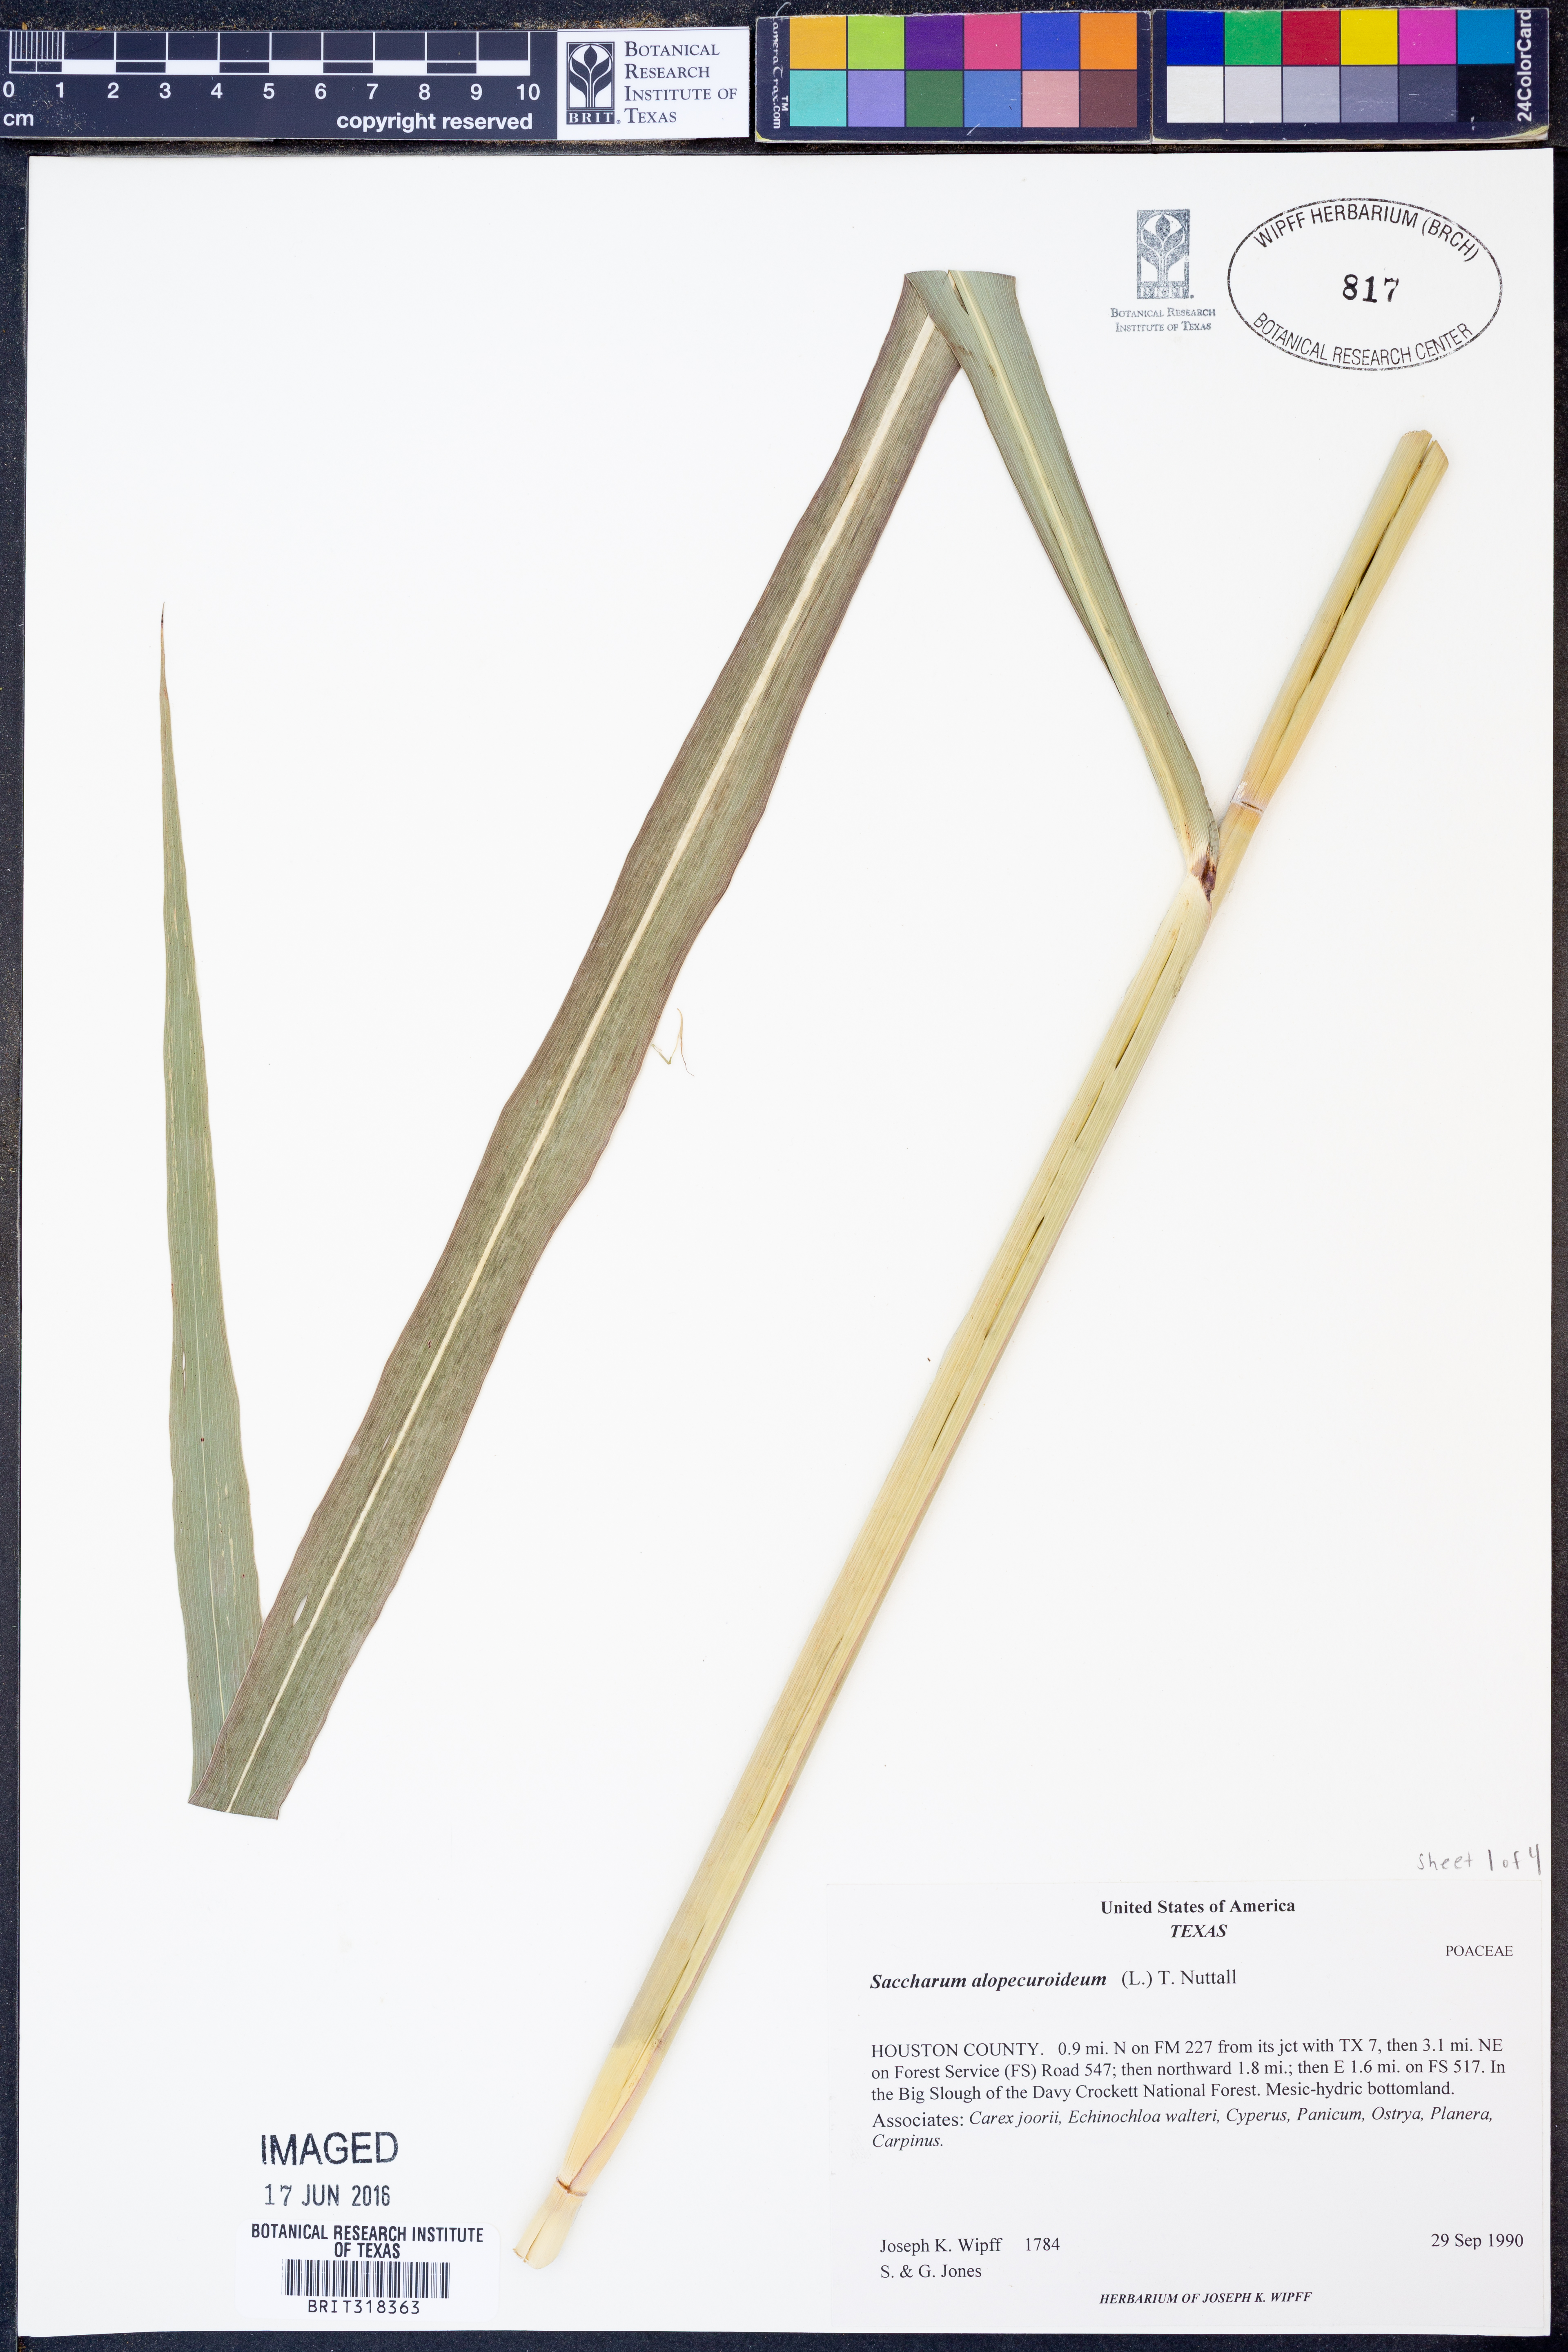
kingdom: Plantae
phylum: Tracheophyta
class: Liliopsida
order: Poales
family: Poaceae
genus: Erianthus
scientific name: Erianthus alopecuroides
